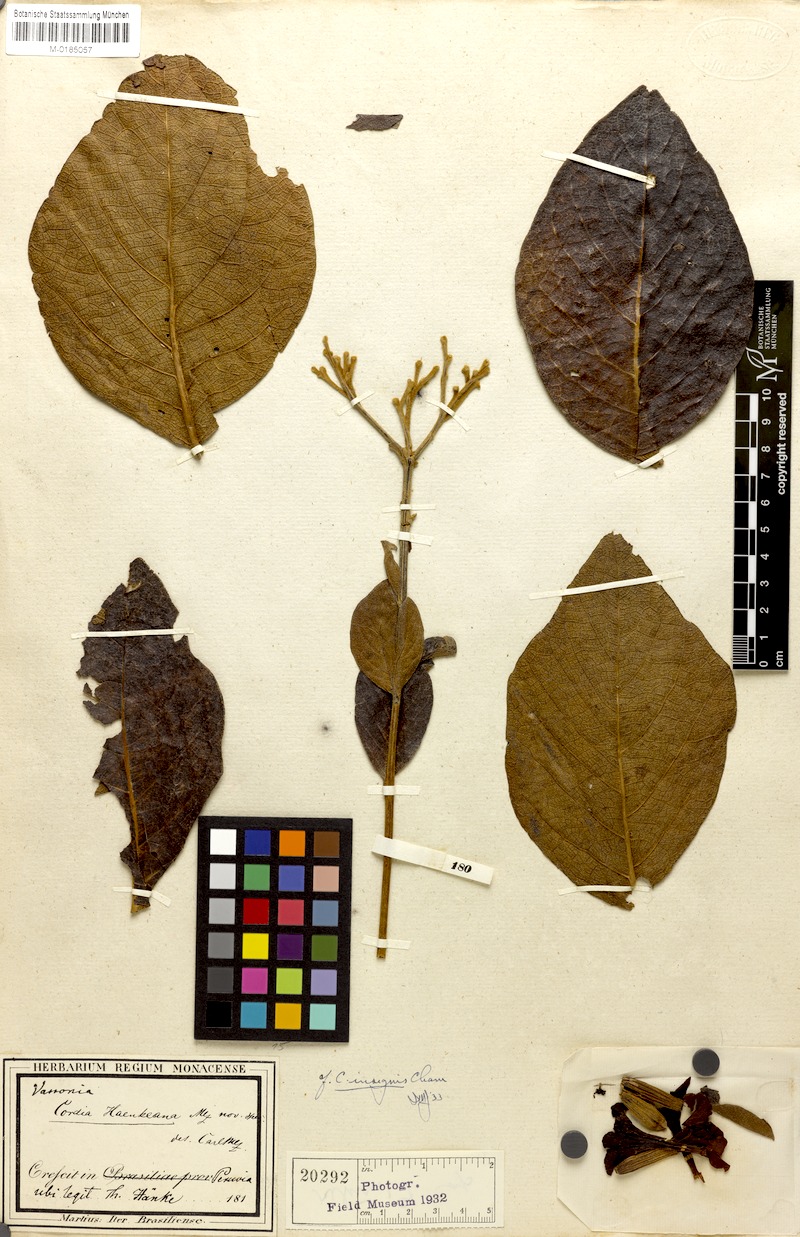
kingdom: Plantae
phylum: Tracheophyta
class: Magnoliopsida
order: Boraginales
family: Cordiaceae
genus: Cordia
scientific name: Cordia insignis
